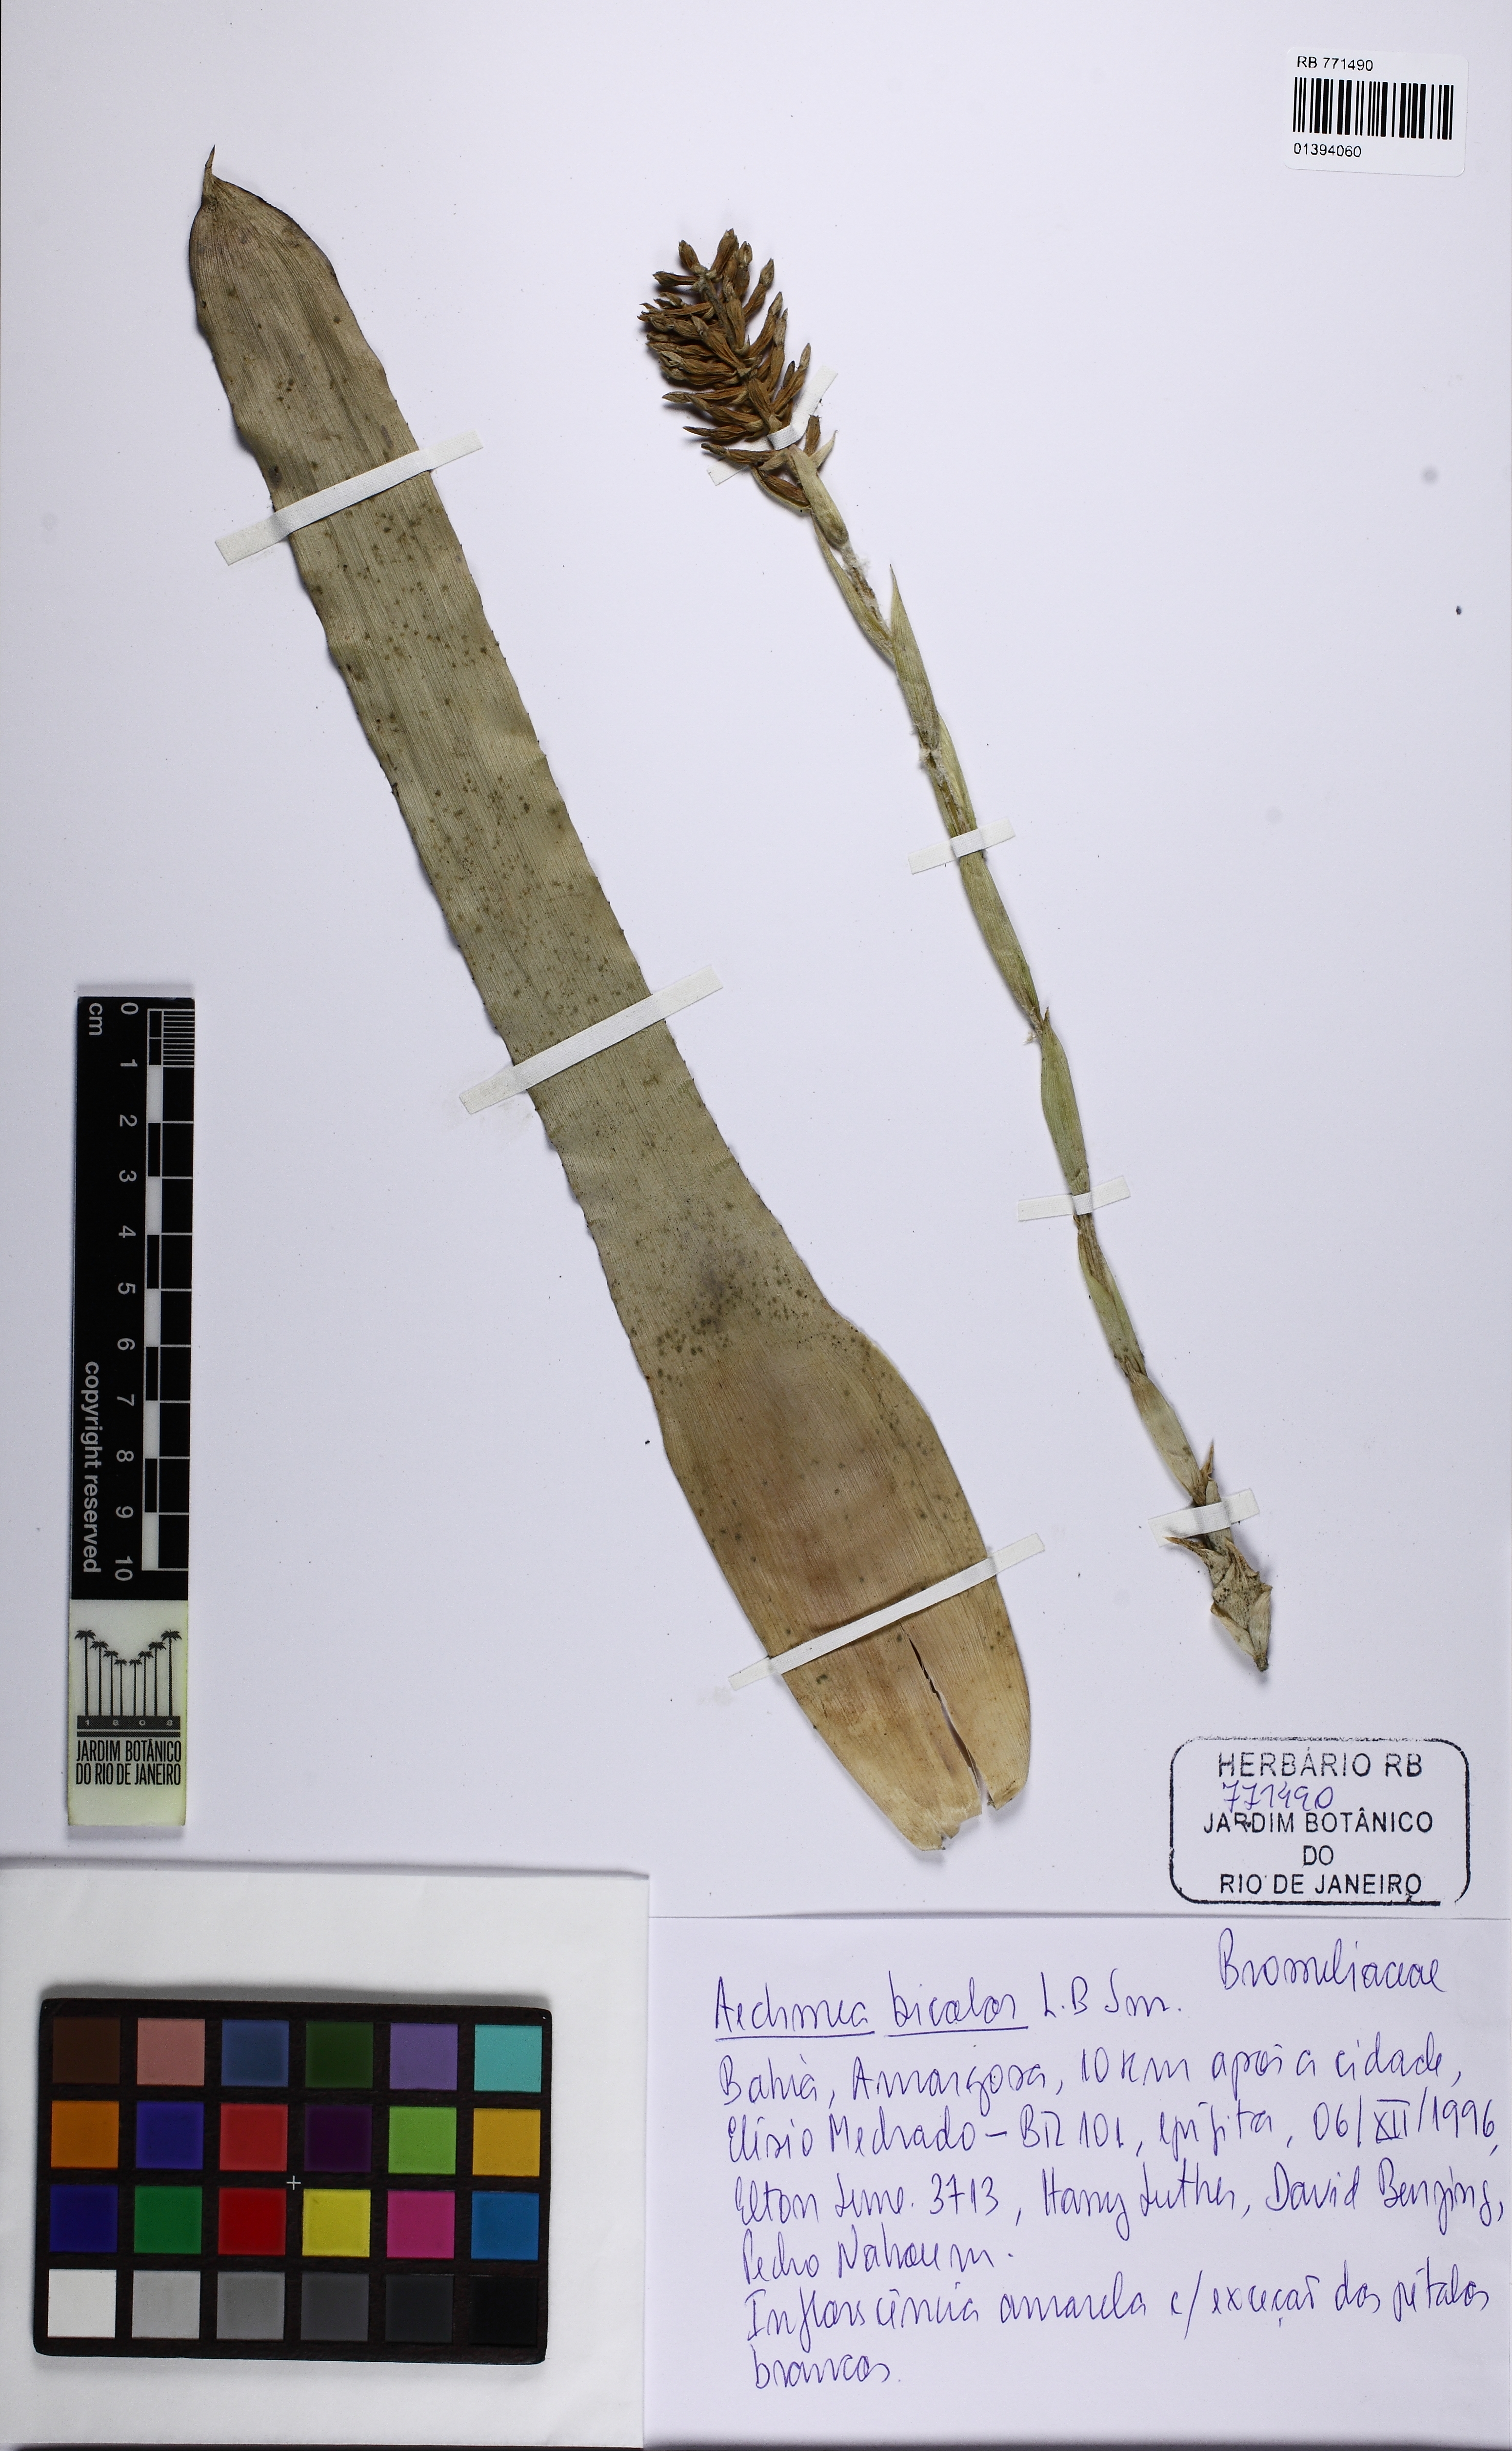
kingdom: Plantae
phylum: Tracheophyta
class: Liliopsida
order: Poales
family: Bromeliaceae
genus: Wittmackia
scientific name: Wittmackia bicolor
